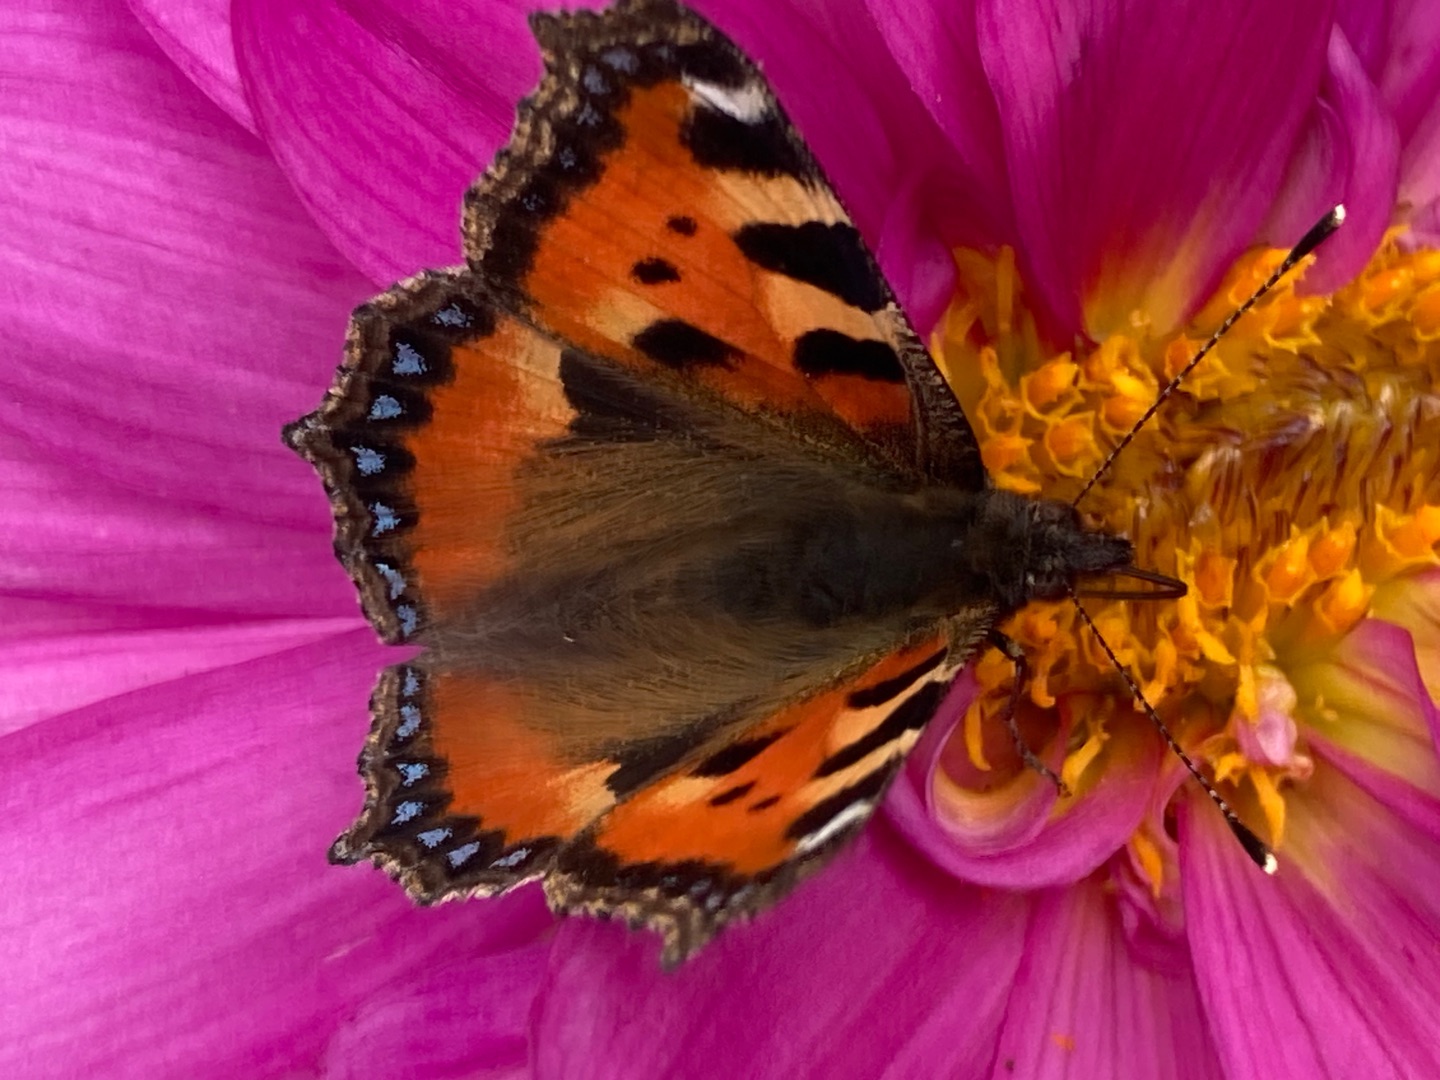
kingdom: Animalia
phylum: Arthropoda
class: Insecta
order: Lepidoptera
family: Nymphalidae
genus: Aglais
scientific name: Aglais urticae
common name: Nældens takvinge
